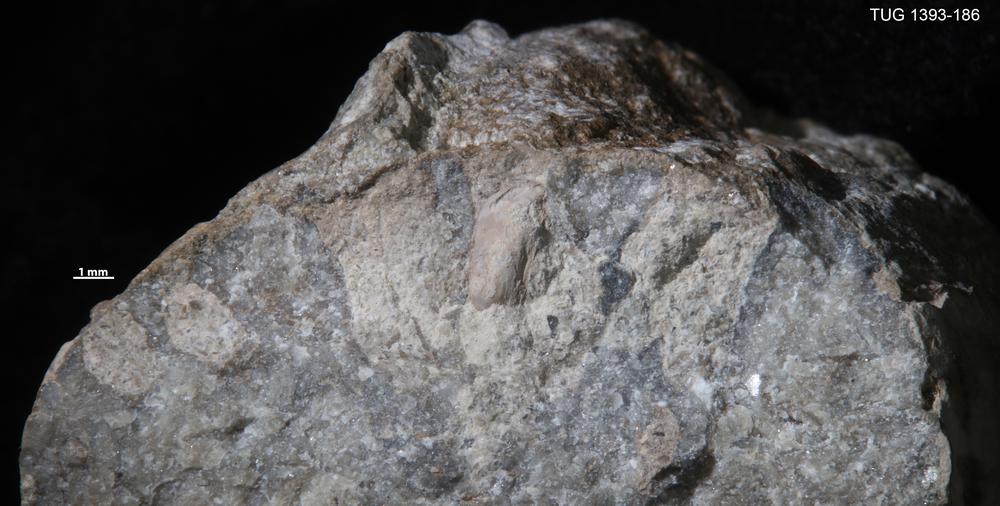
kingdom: Animalia
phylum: Brachiopoda
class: Lingulata
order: Lingulida
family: Zhanatellidae
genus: Rowellella
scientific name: Rowellella
